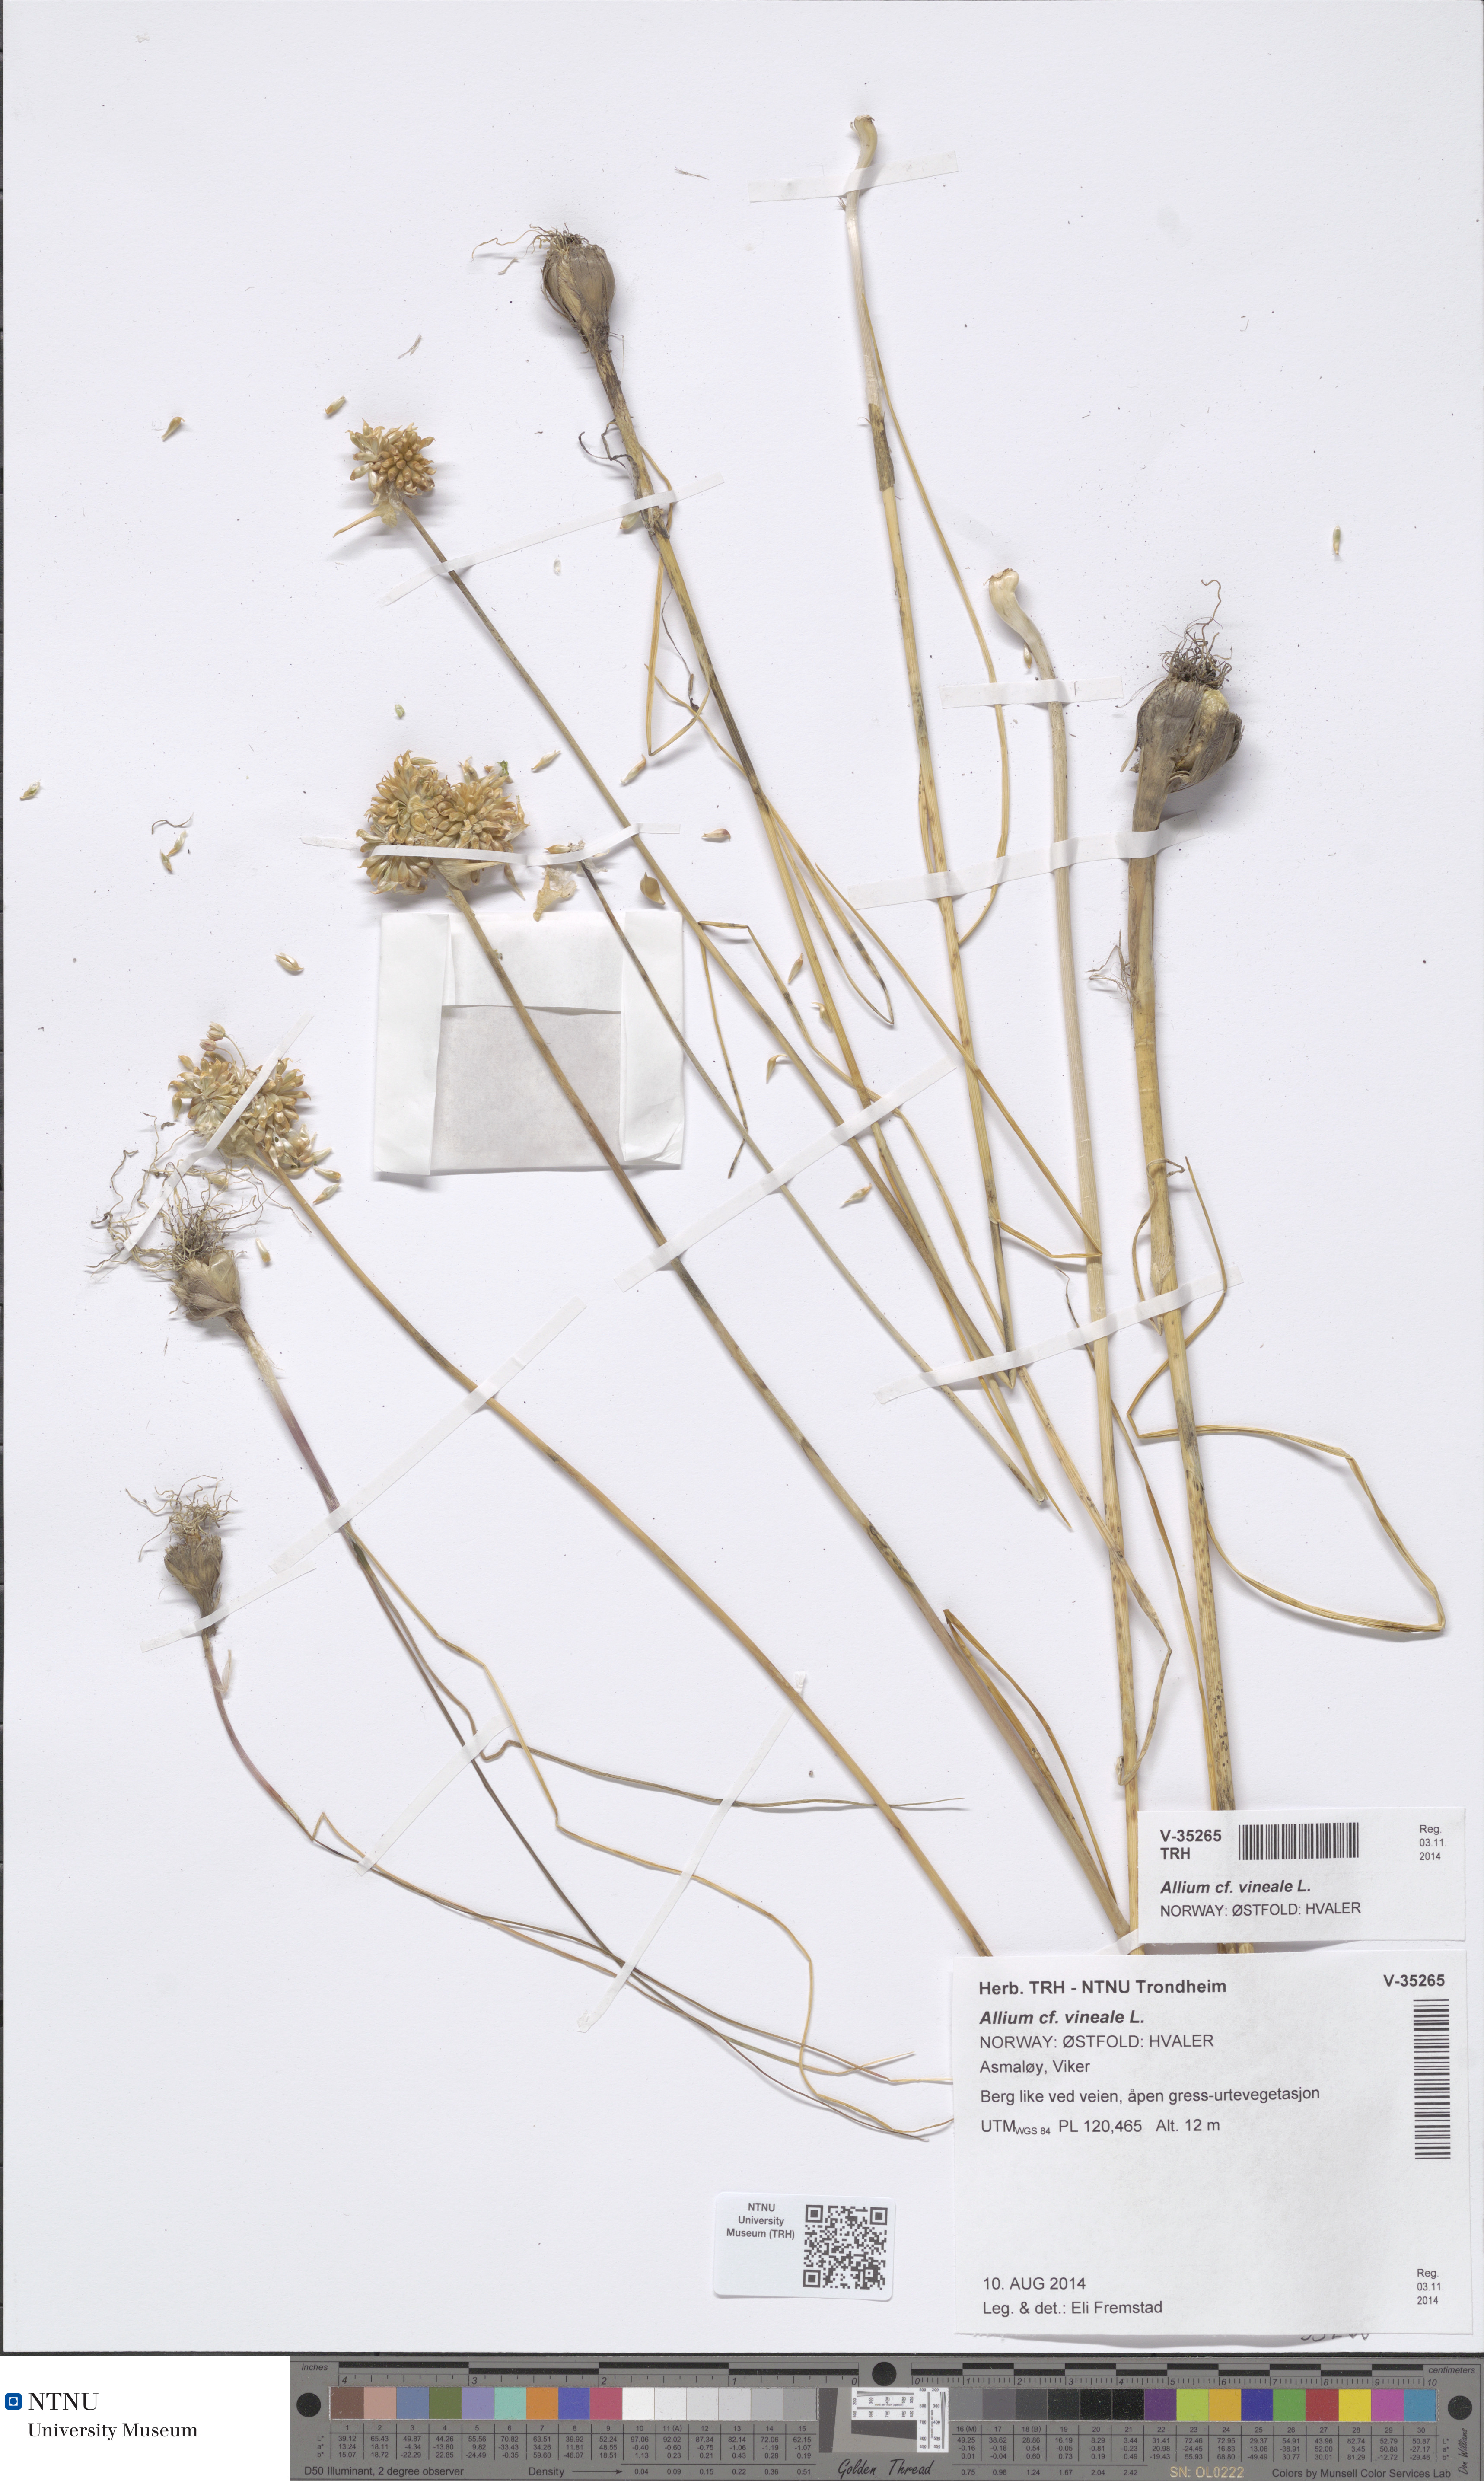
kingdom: Plantae
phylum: Tracheophyta
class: Liliopsida
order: Asparagales
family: Amaryllidaceae
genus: Allium
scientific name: Allium vineale
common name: Crow garlic
